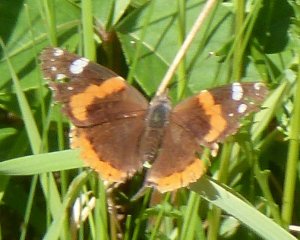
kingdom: Animalia
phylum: Arthropoda
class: Insecta
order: Lepidoptera
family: Nymphalidae
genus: Vanessa
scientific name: Vanessa atalanta
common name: Red Admiral
